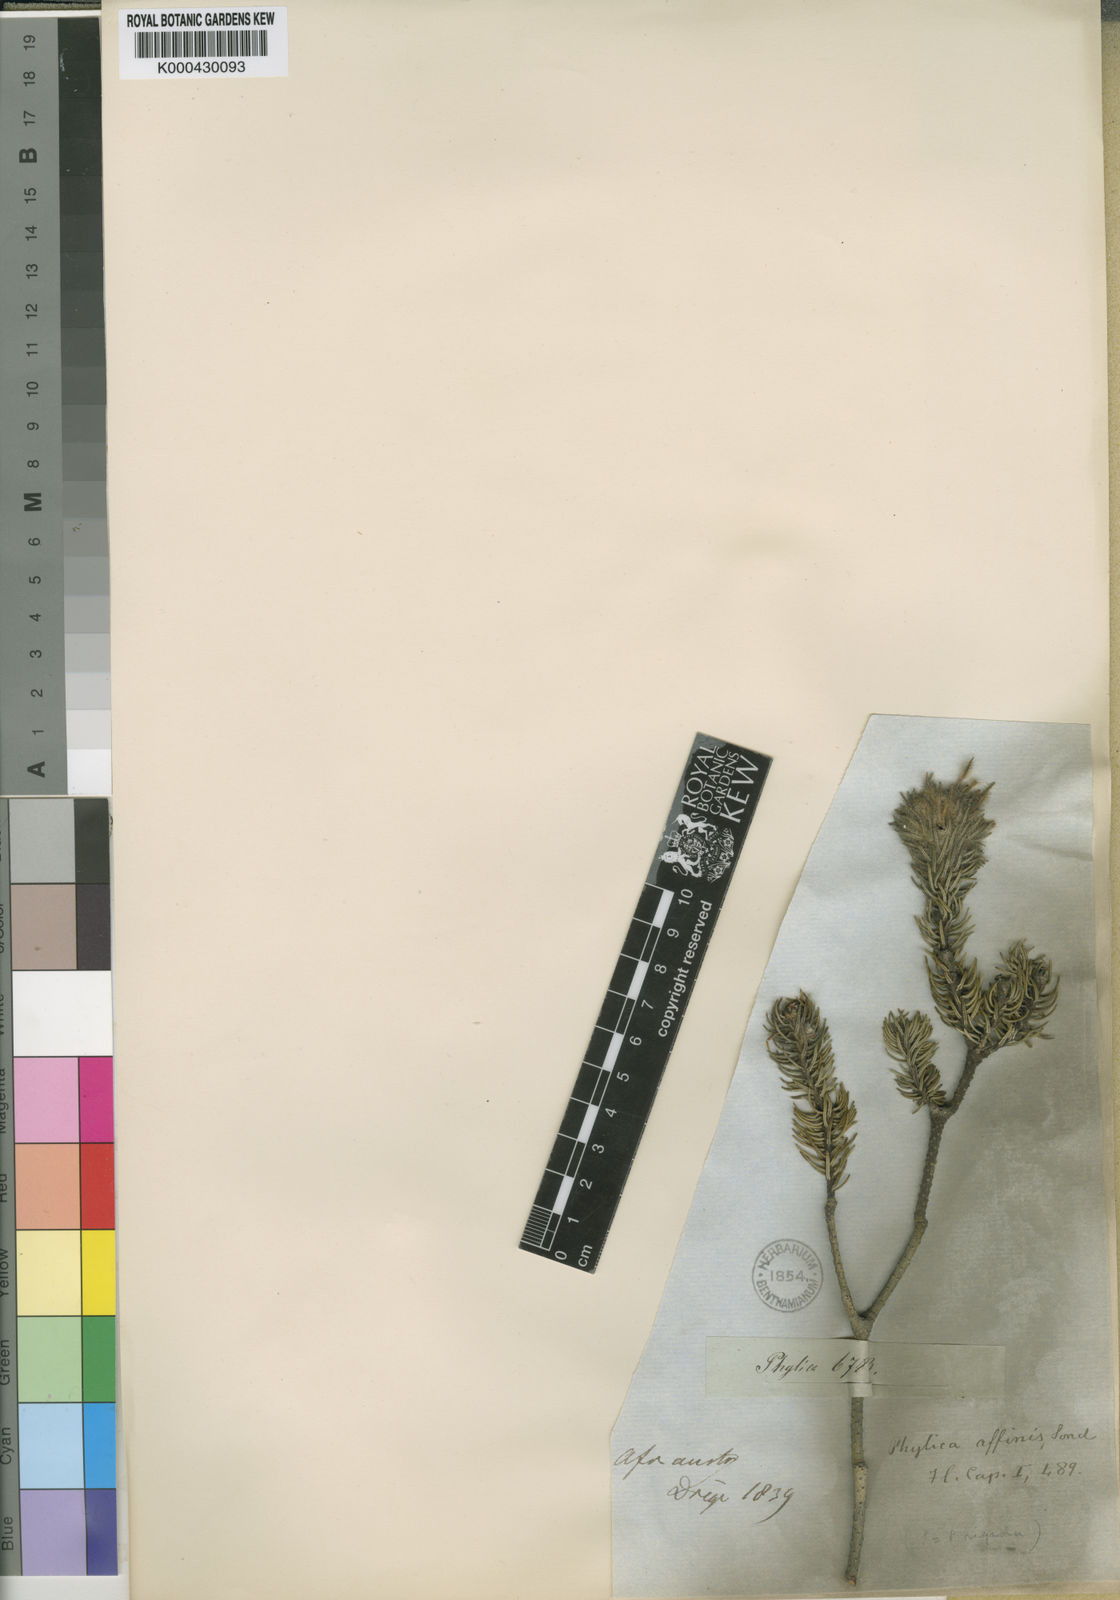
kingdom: Plantae
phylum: Tracheophyta
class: Magnoliopsida
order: Rosales
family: Rhamnaceae
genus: Phylica
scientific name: Phylica affinis
